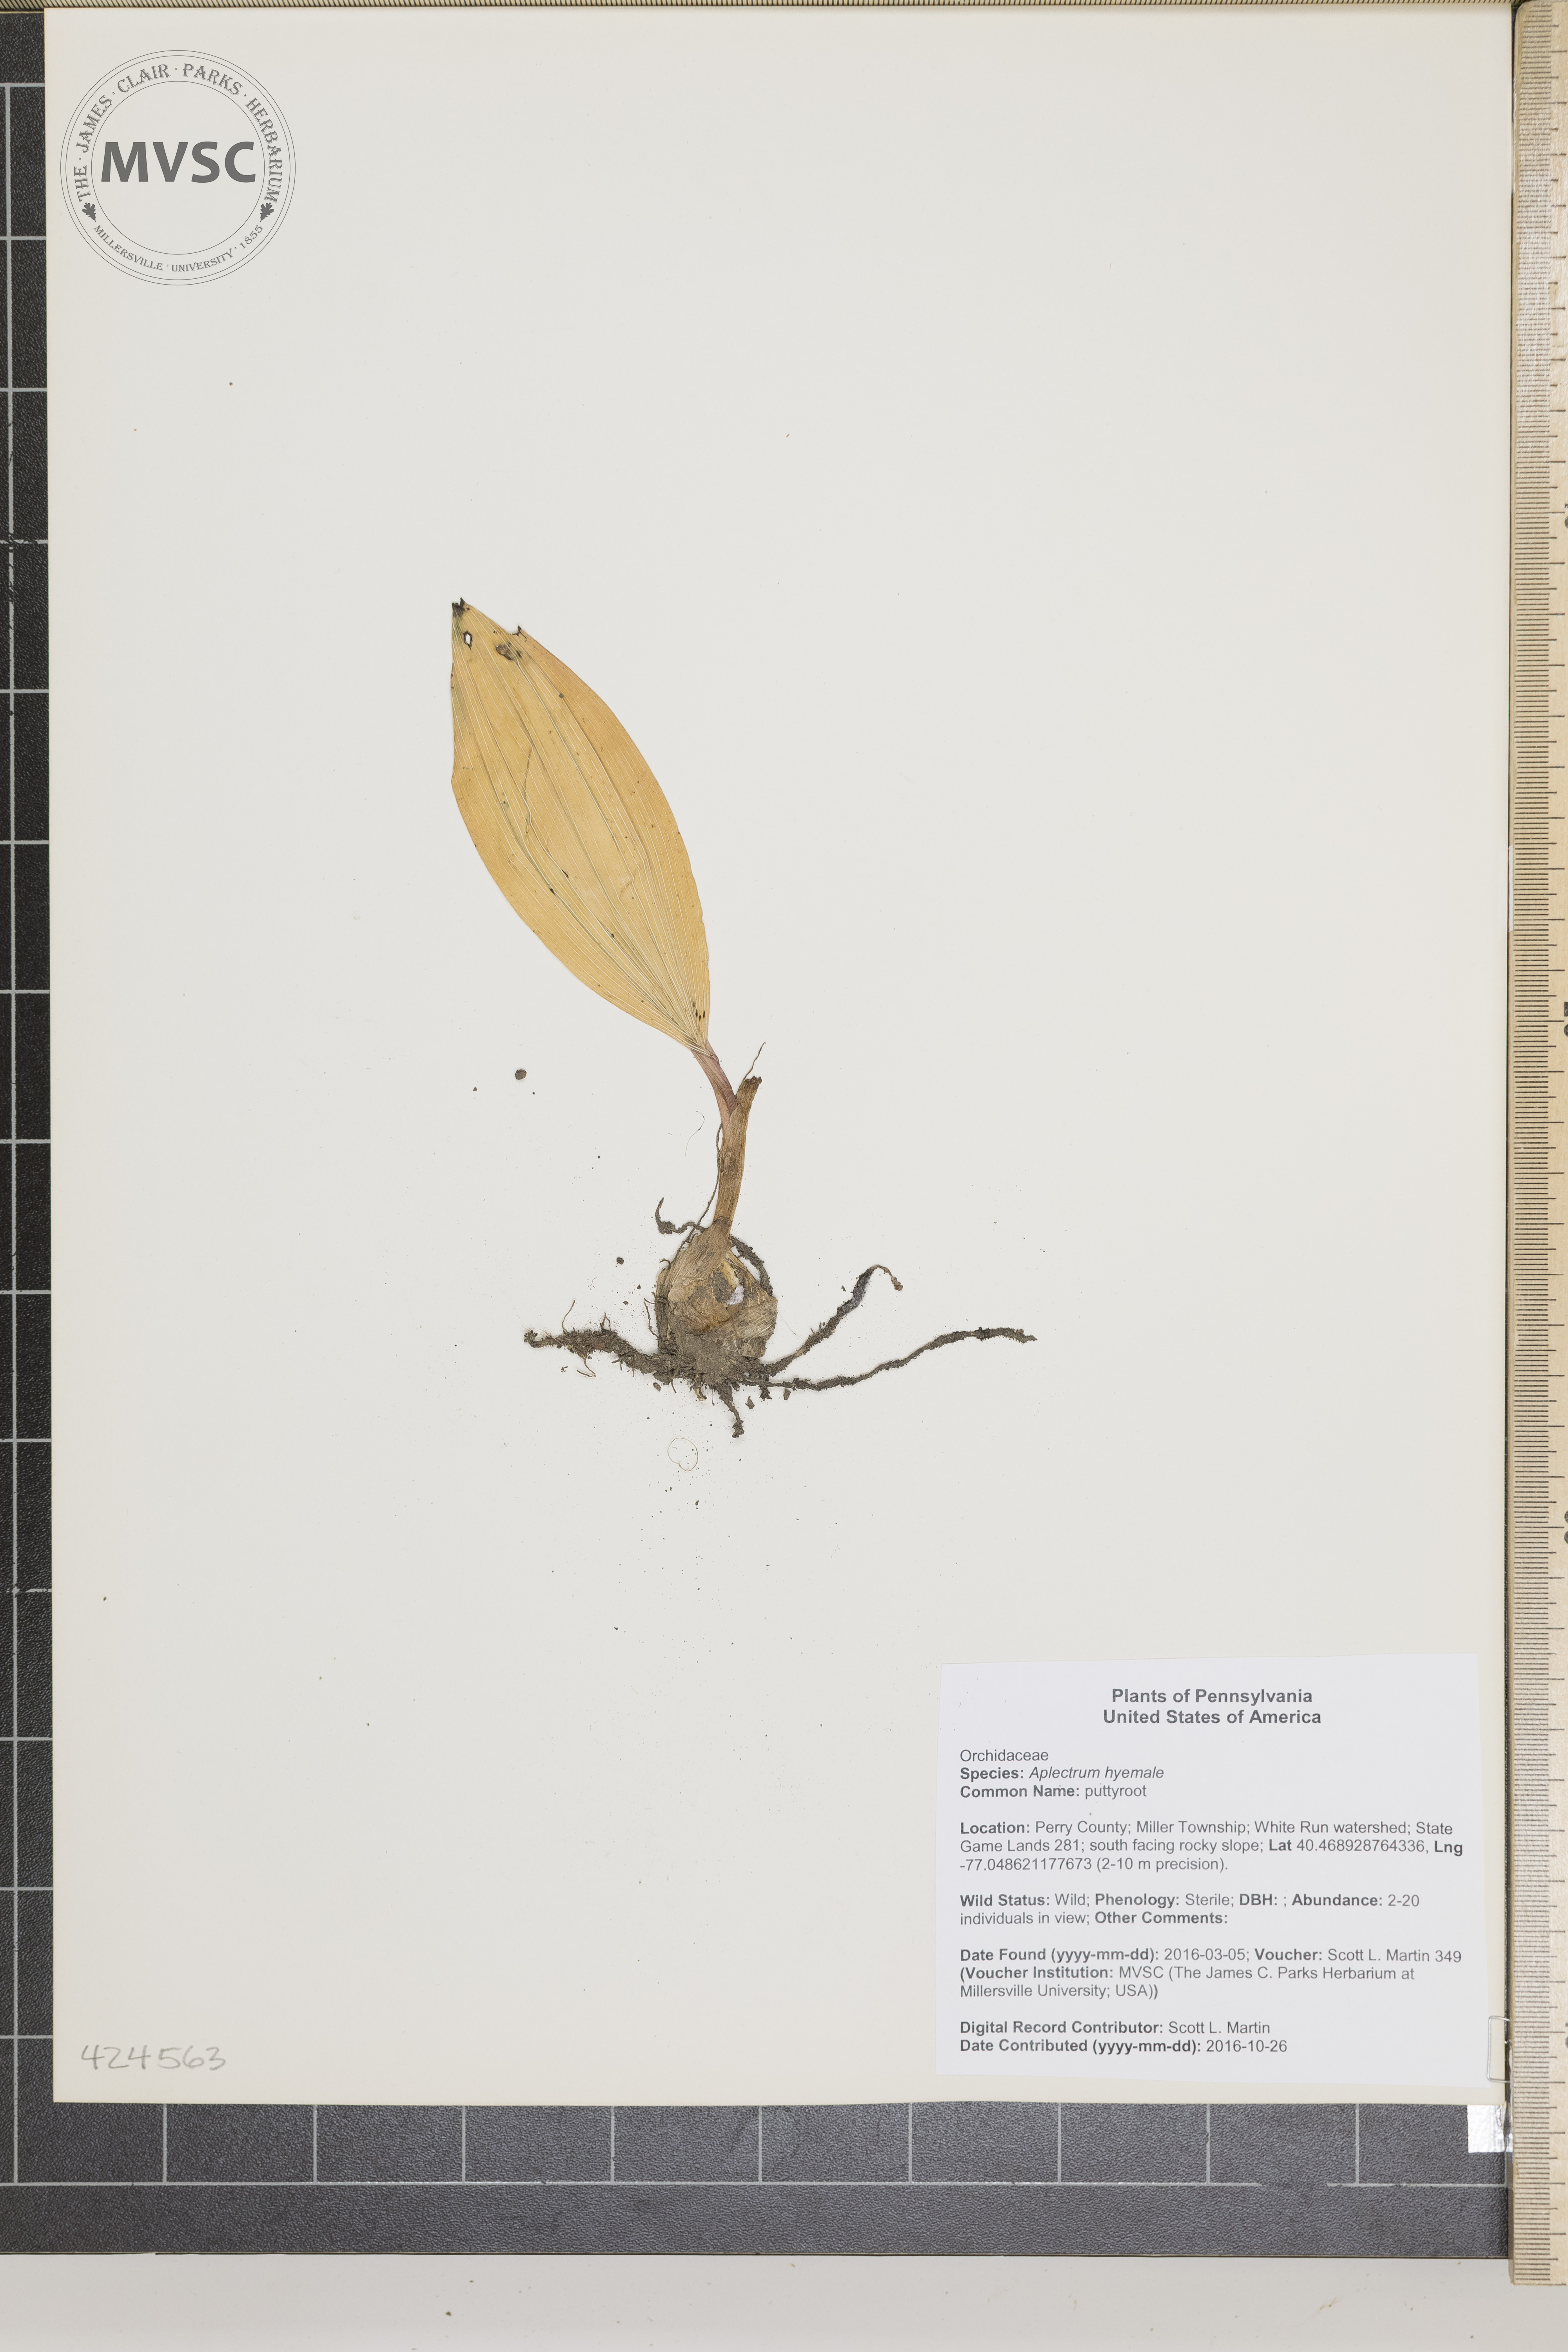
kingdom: Plantae
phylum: Tracheophyta
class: Liliopsida
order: Asparagales
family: Orchidaceae
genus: Aplectrum
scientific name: Aplectrum hyemale
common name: puttyroot
